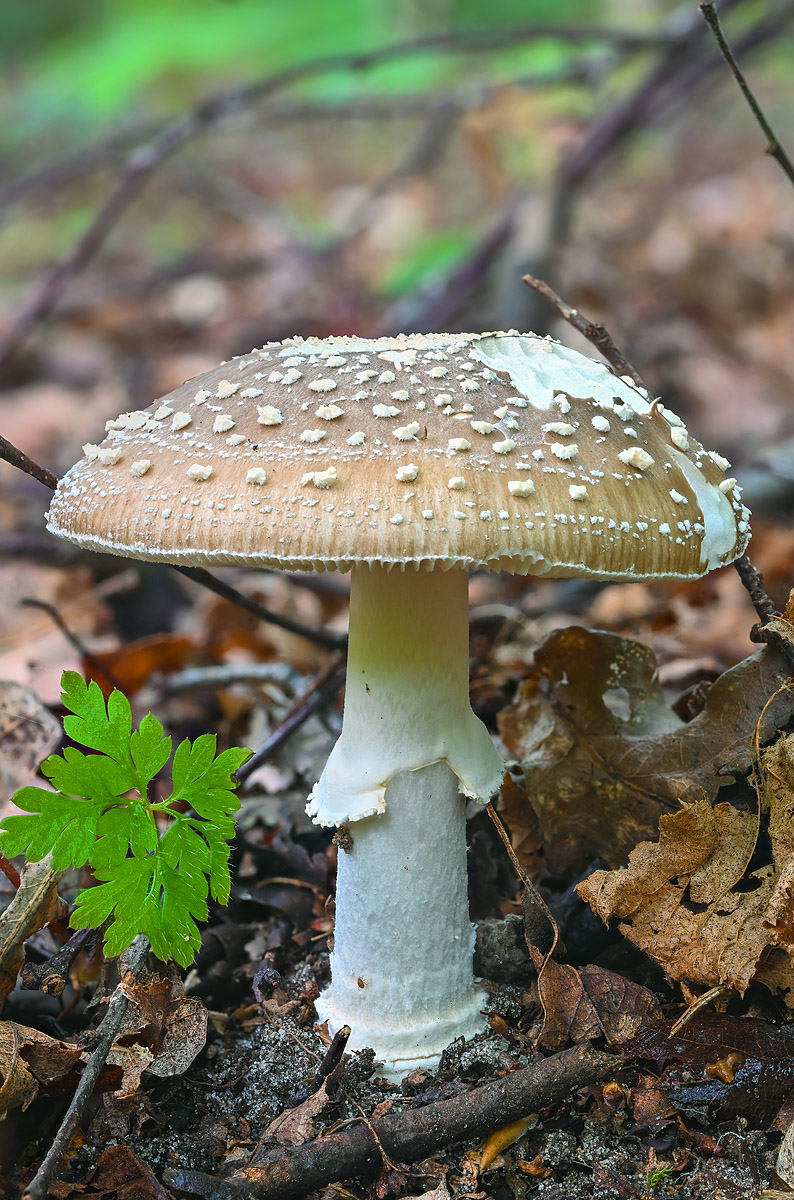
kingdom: Fungi
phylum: Basidiomycota
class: Agaricomycetes
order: Agaricales
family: Amanitaceae
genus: Amanita
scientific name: Amanita pantherina
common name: panter-fluesvamp
